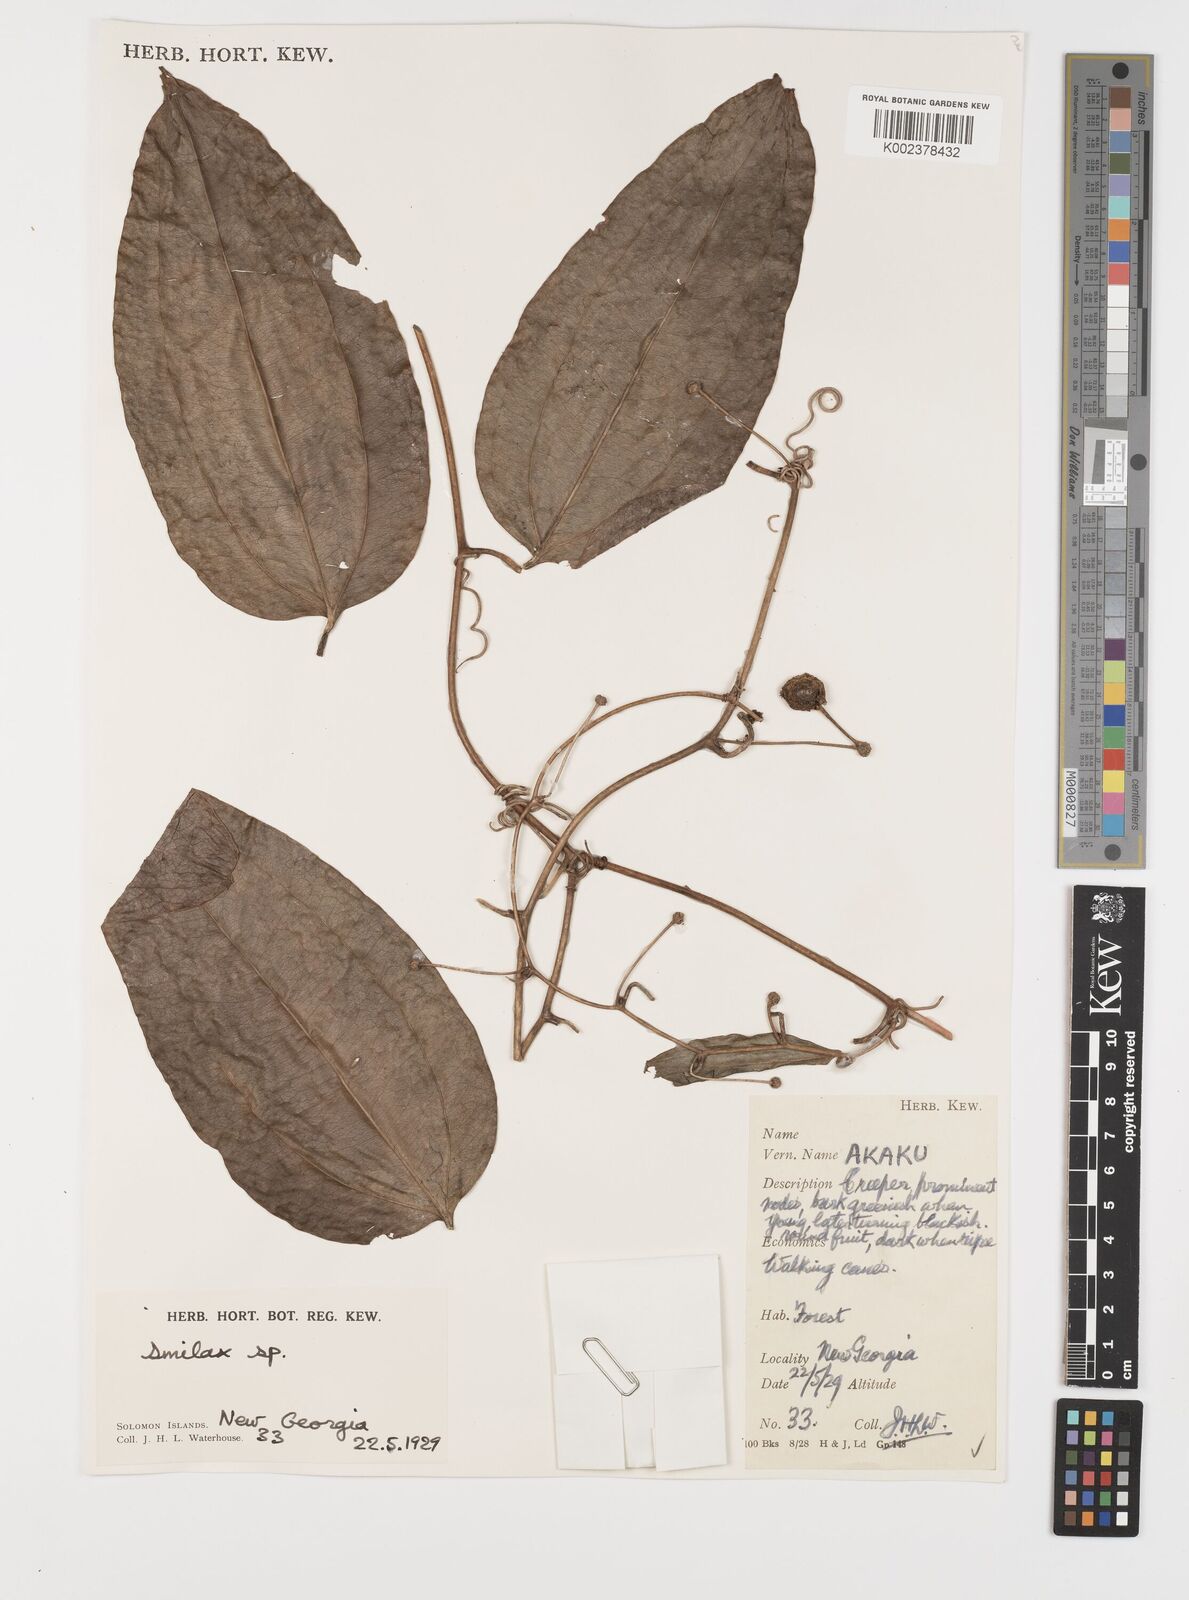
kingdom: Plantae
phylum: Tracheophyta
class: Liliopsida
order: Liliales
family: Smilacaceae
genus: Smilax
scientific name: Smilax
